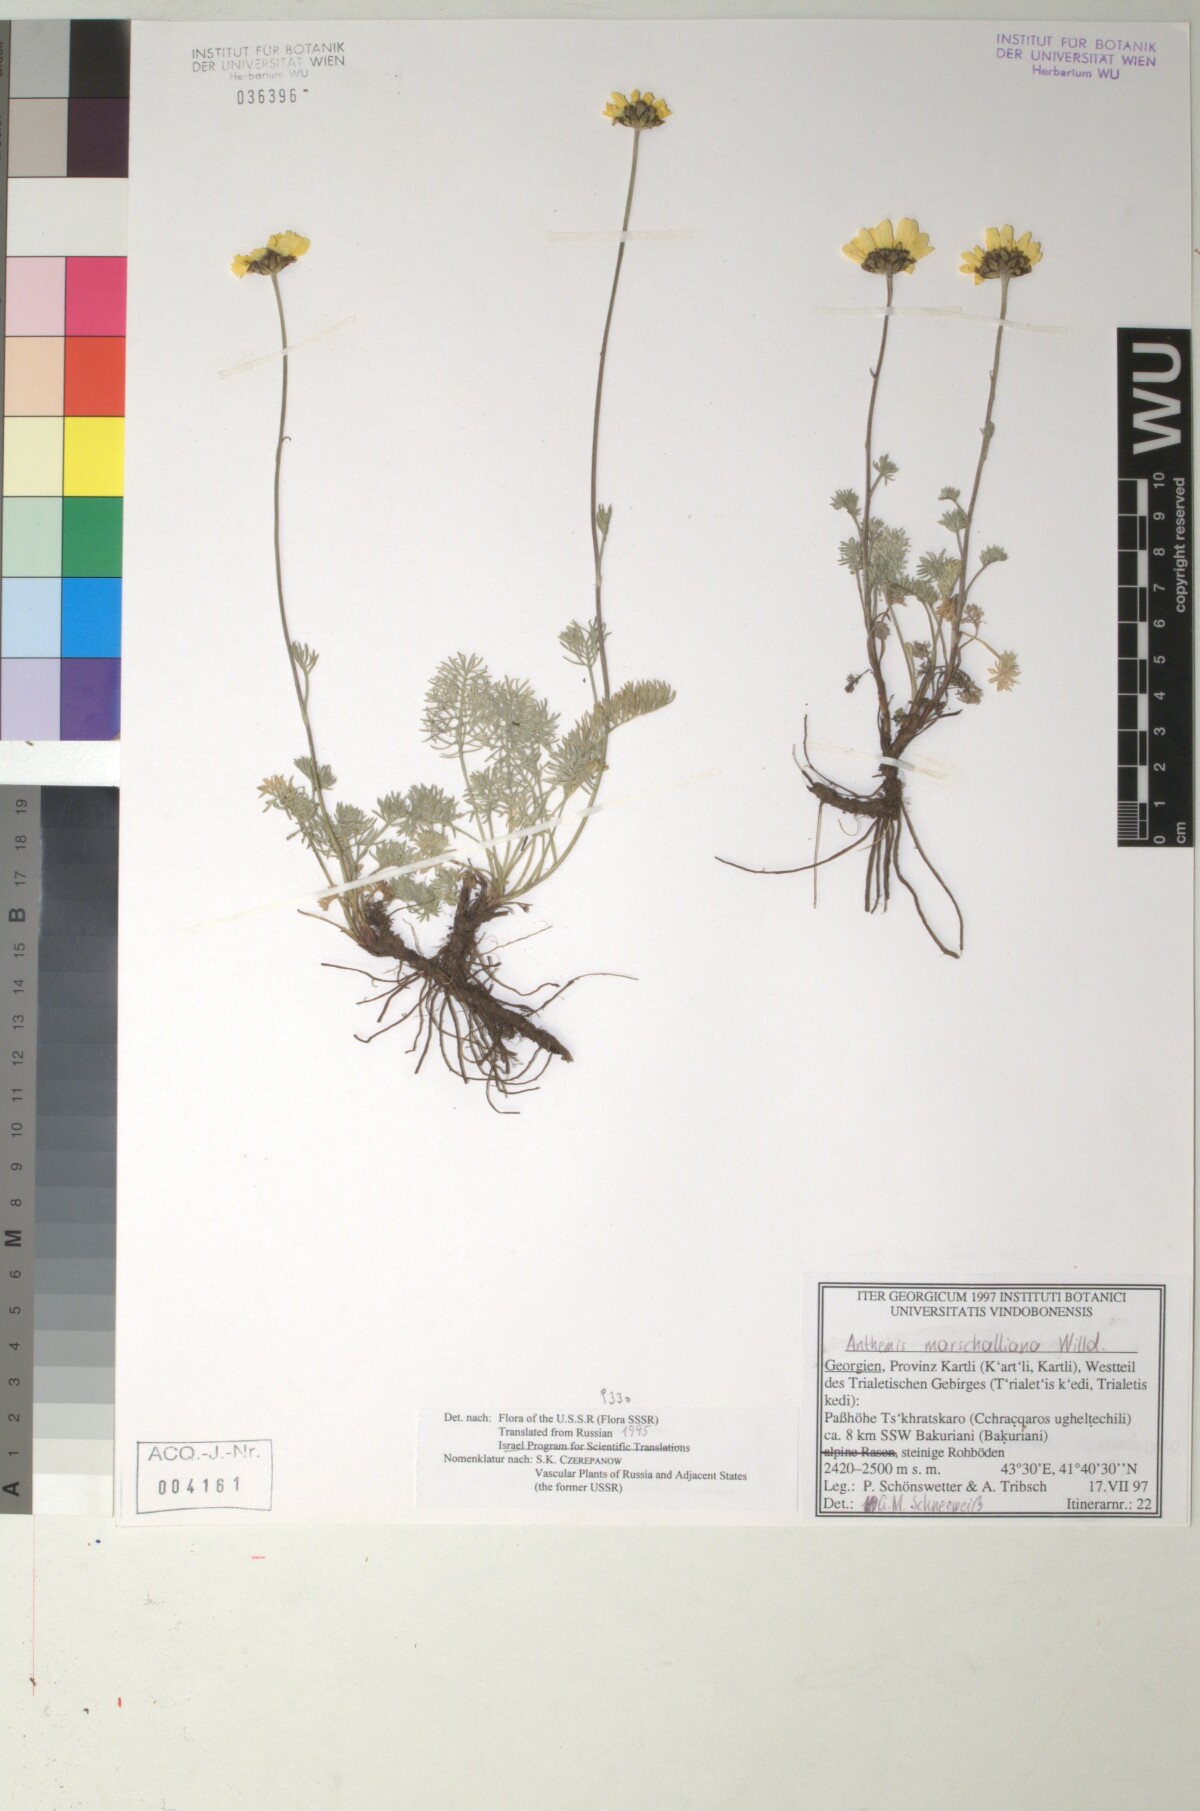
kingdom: Plantae
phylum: Tracheophyta
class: Magnoliopsida
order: Asterales
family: Asteraceae
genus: Archanthemis
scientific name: Archanthemis marschalliana
